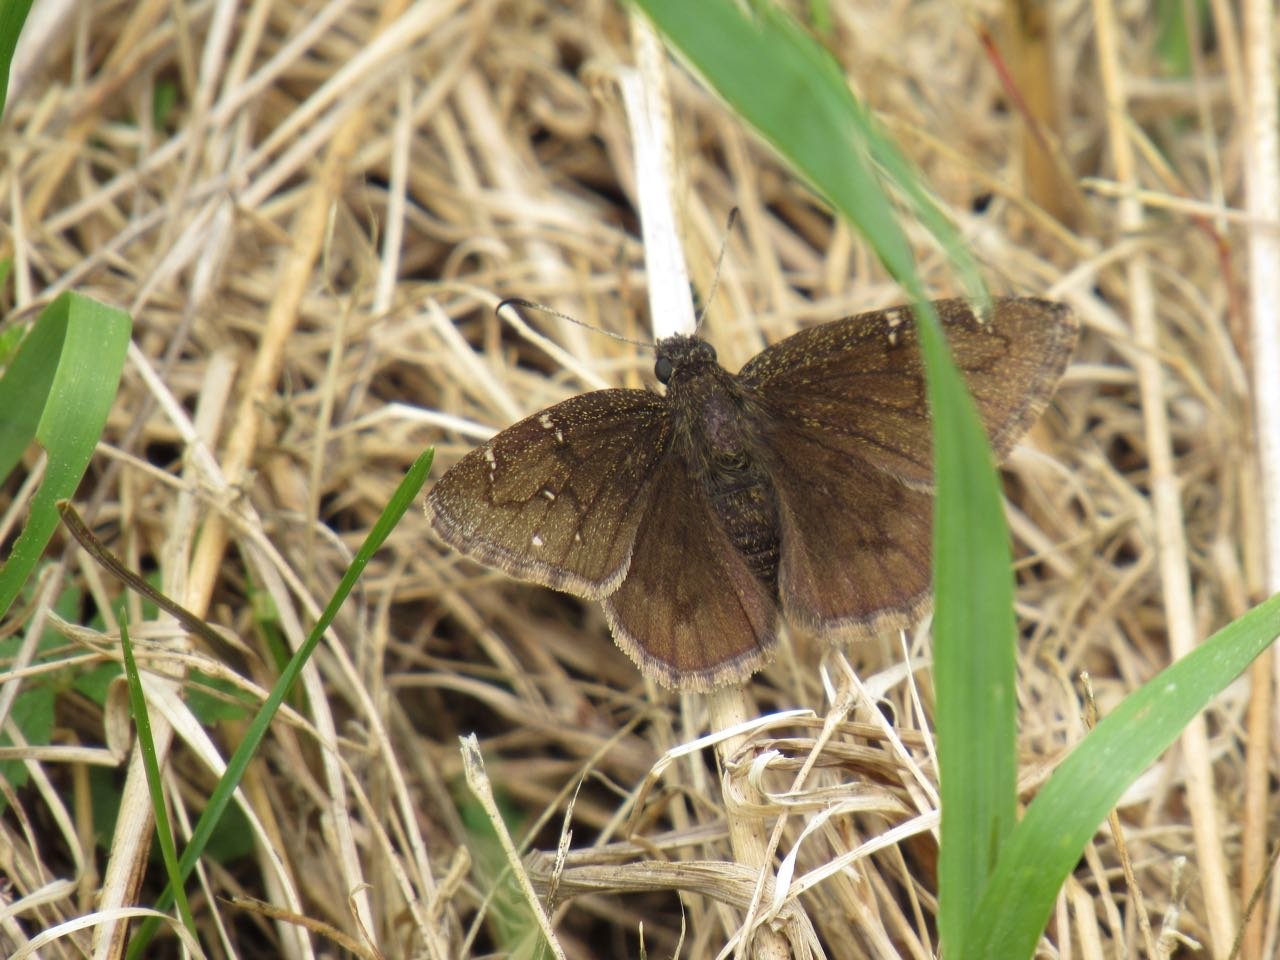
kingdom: Animalia
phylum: Arthropoda
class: Insecta
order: Lepidoptera
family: Hesperiidae
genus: Autochton
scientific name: Autochton
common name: Northern Cloudywing
